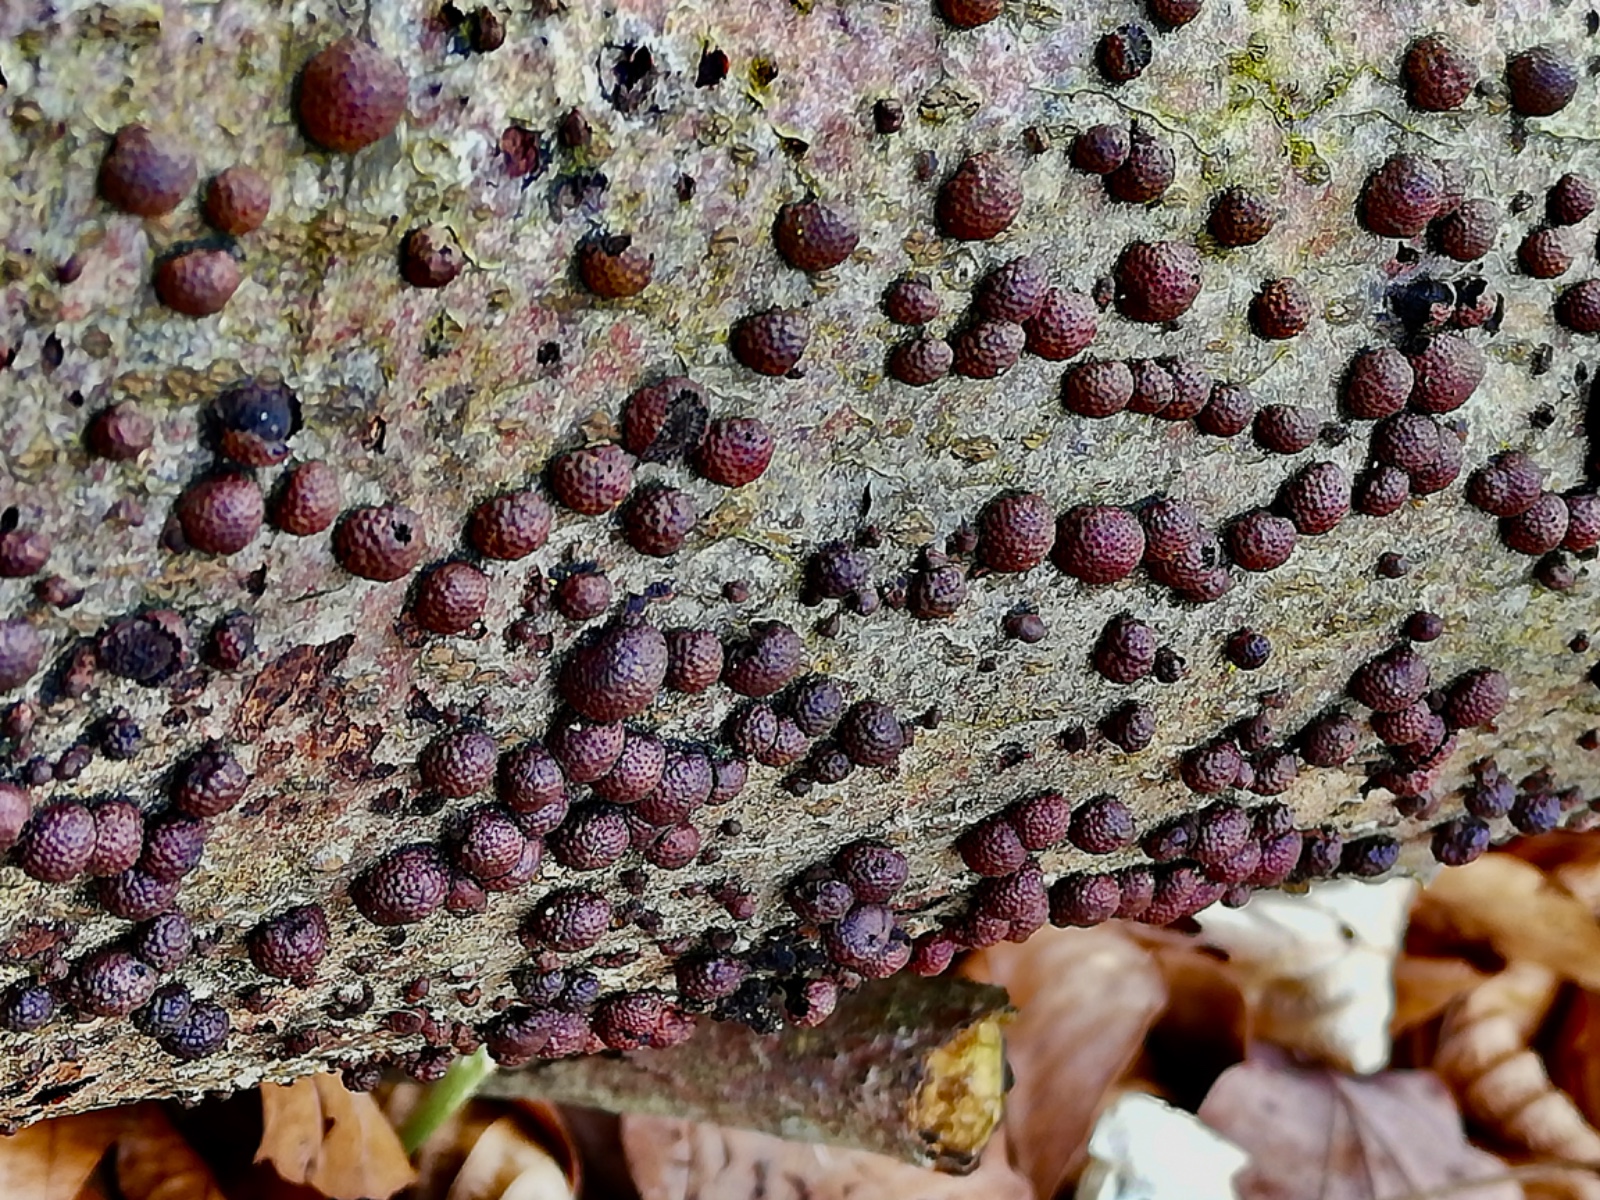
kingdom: Fungi
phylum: Ascomycota
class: Sordariomycetes
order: Xylariales
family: Hypoxylaceae
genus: Hypoxylon
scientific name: Hypoxylon fragiforme
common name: kuljordbær
